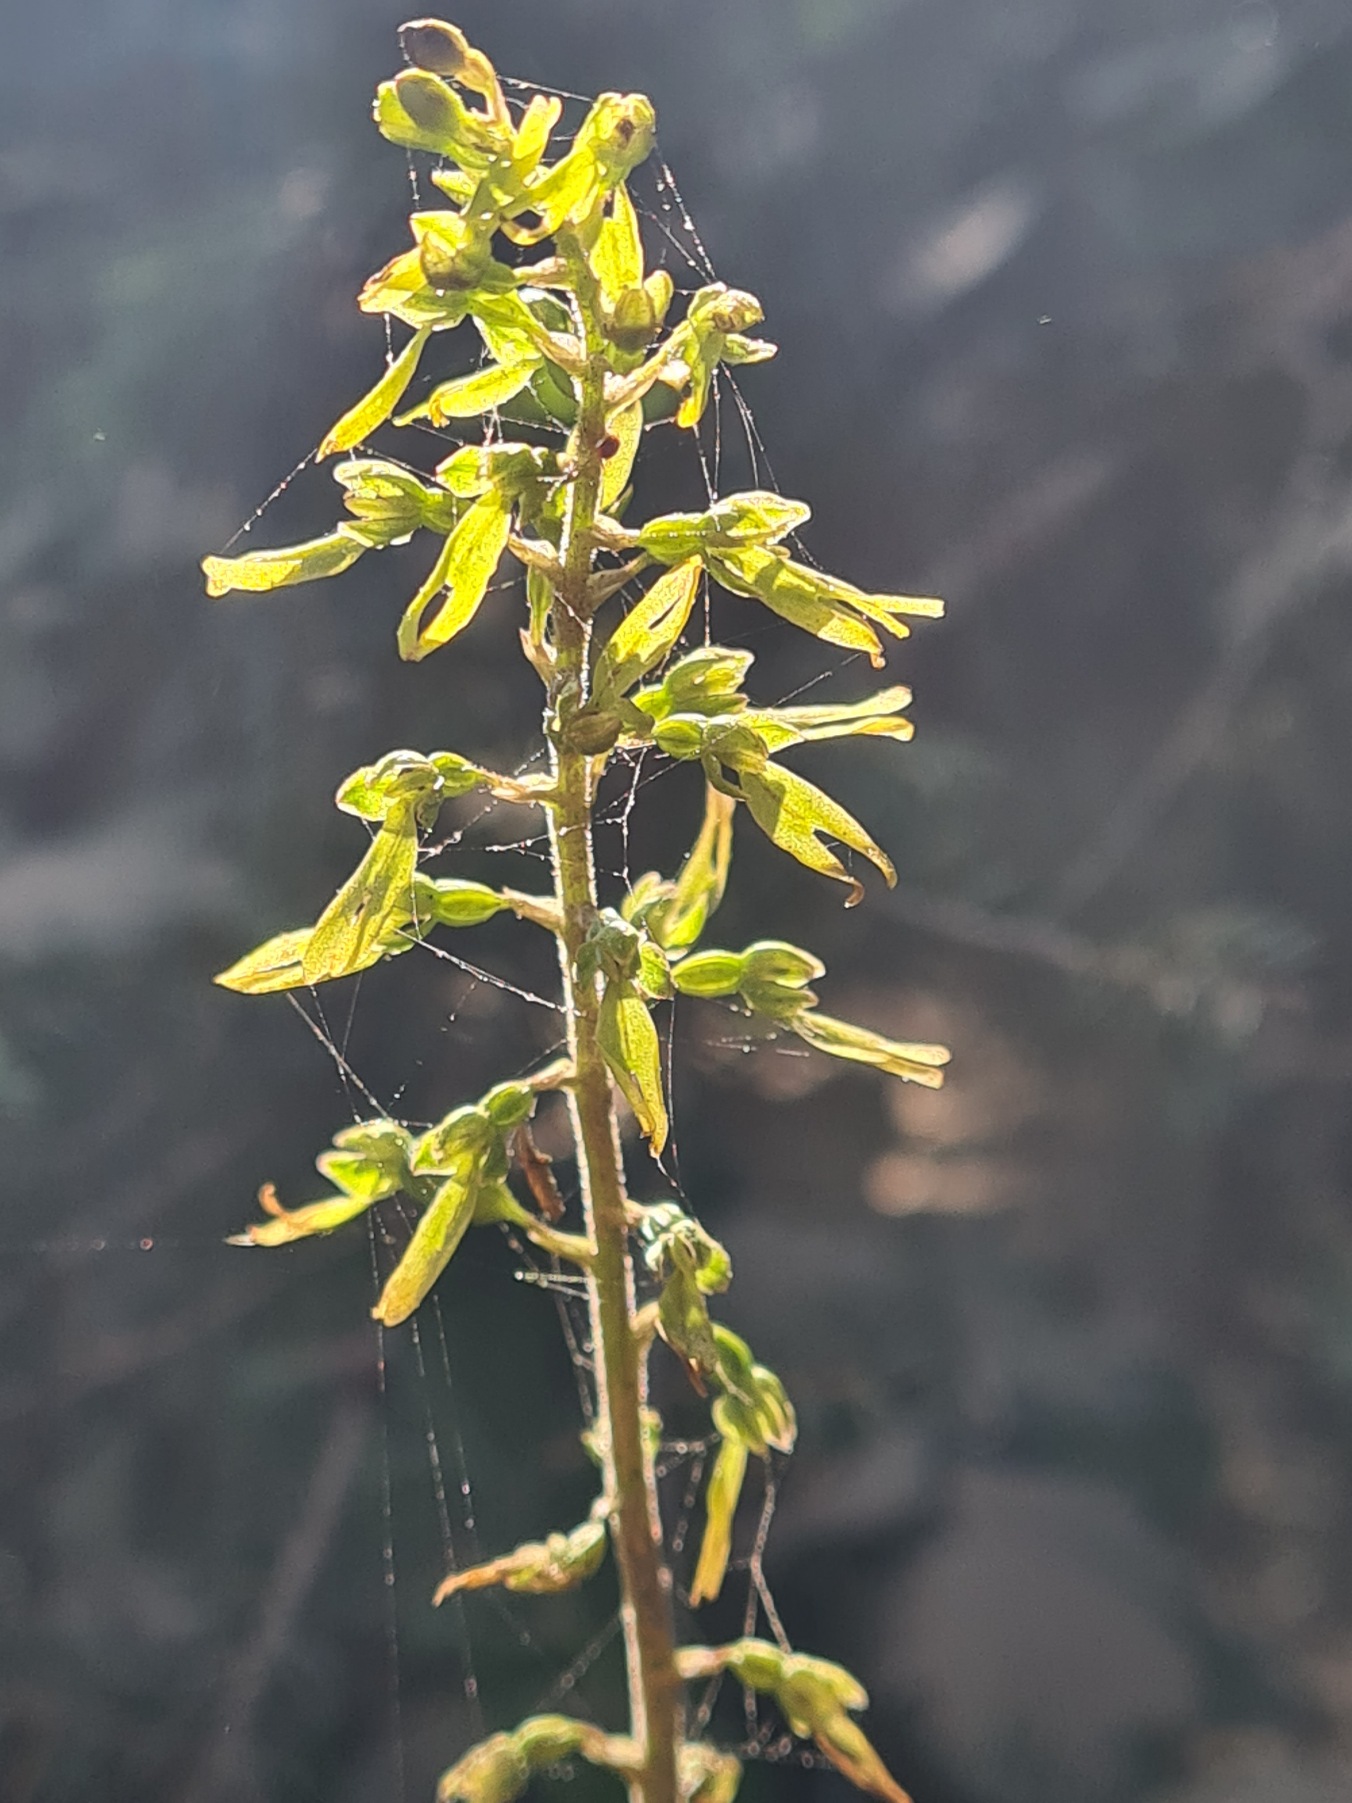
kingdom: Plantae
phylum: Tracheophyta
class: Liliopsida
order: Asparagales
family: Orchidaceae
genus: Neottia
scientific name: Neottia ovata
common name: Ægbladet fliglæbe
